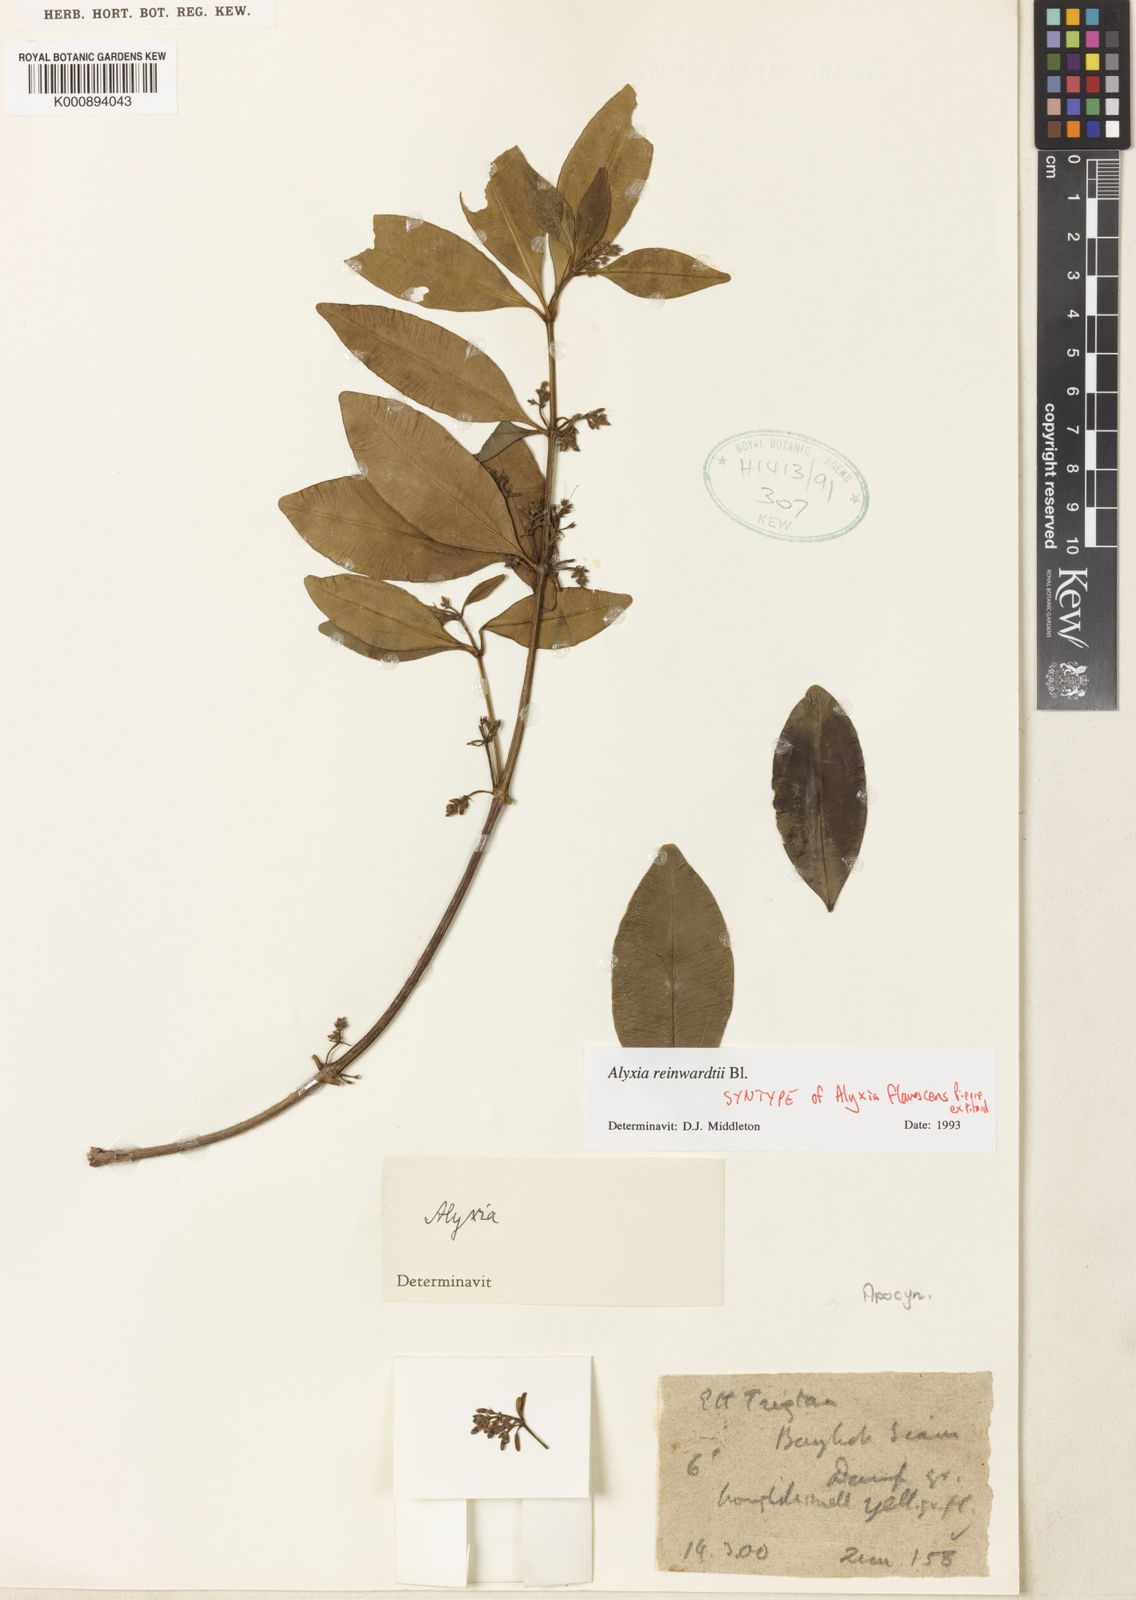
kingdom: Plantae
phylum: Tracheophyta
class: Magnoliopsida
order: Gentianales
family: Apocynaceae
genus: Alyxia
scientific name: Alyxia reinwardtii
